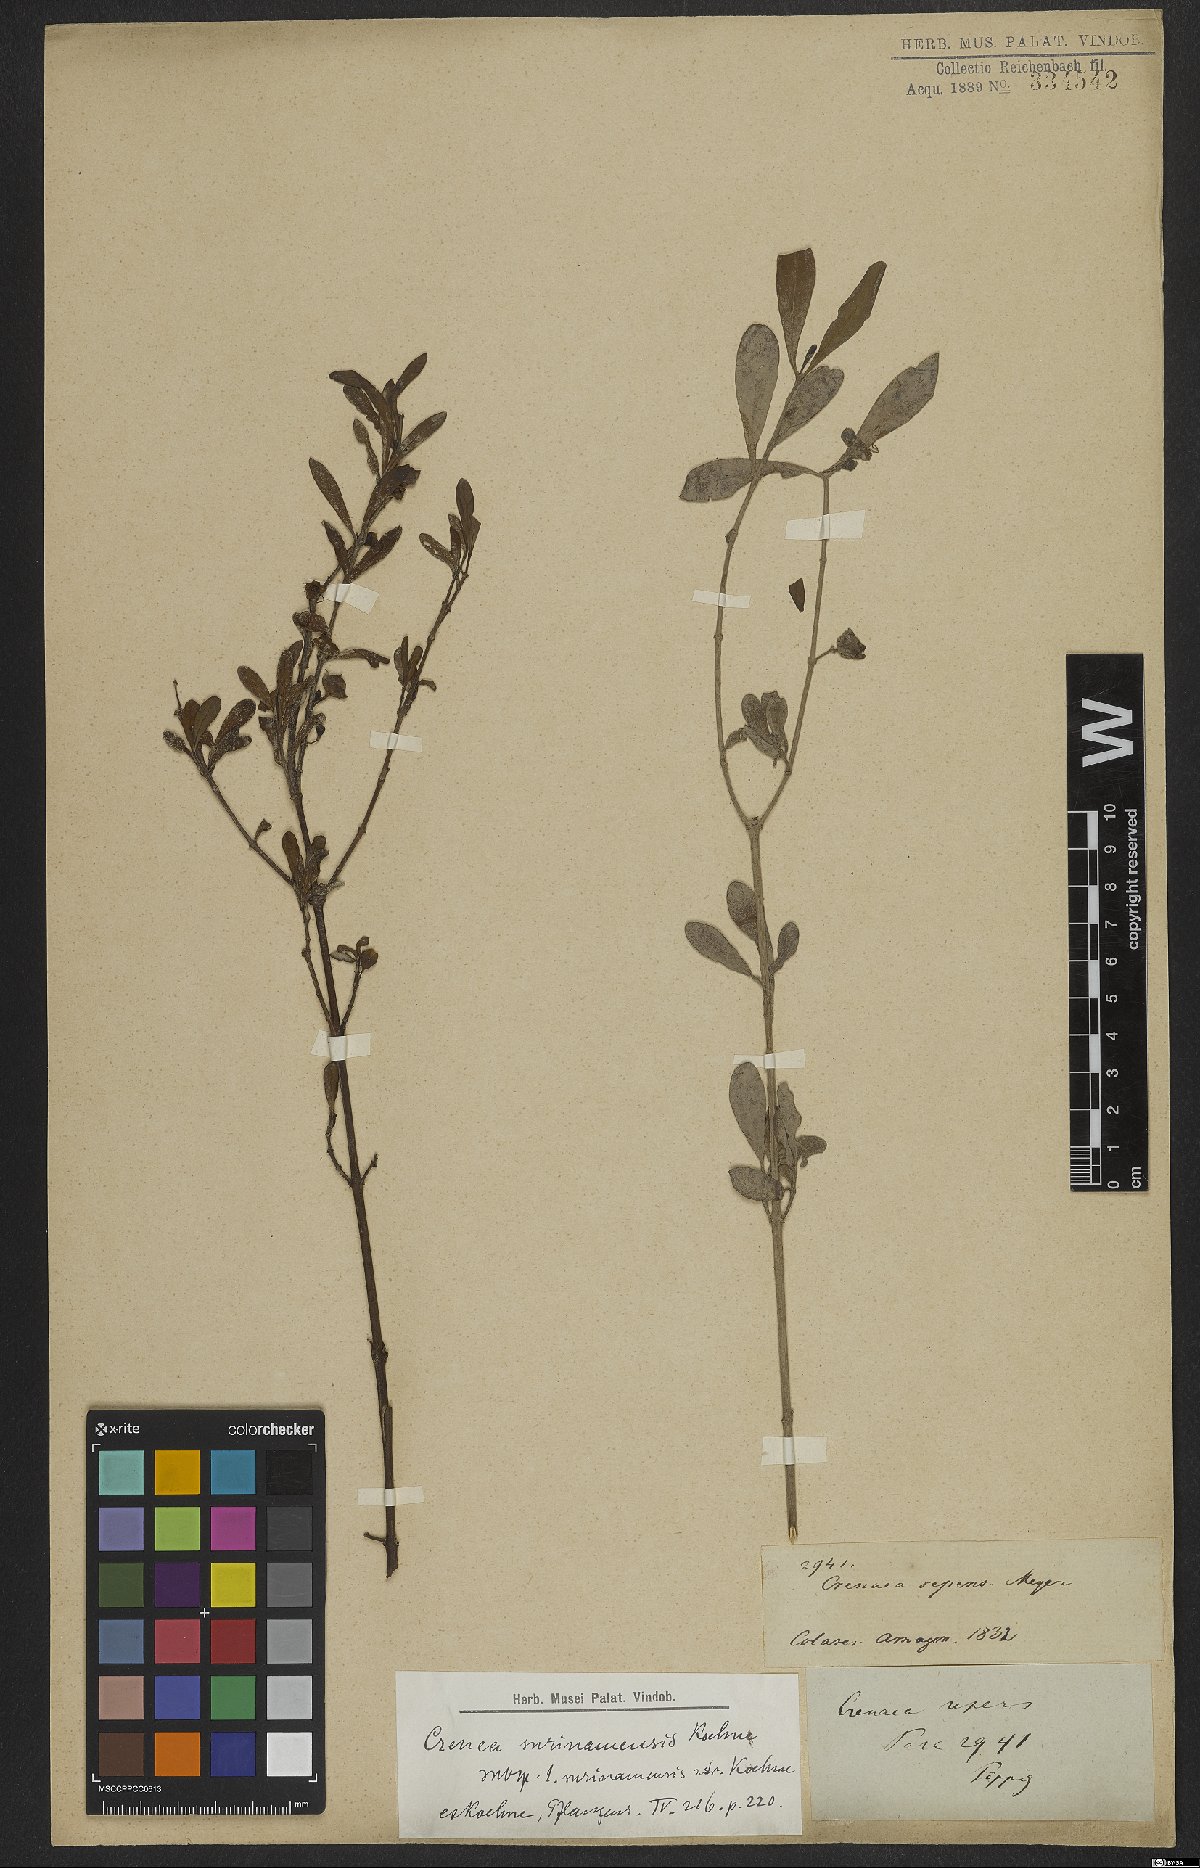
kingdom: Plantae
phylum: Tracheophyta
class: Magnoliopsida
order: Myrtales
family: Lythraceae
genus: Ammannia
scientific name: Ammannia maritima
